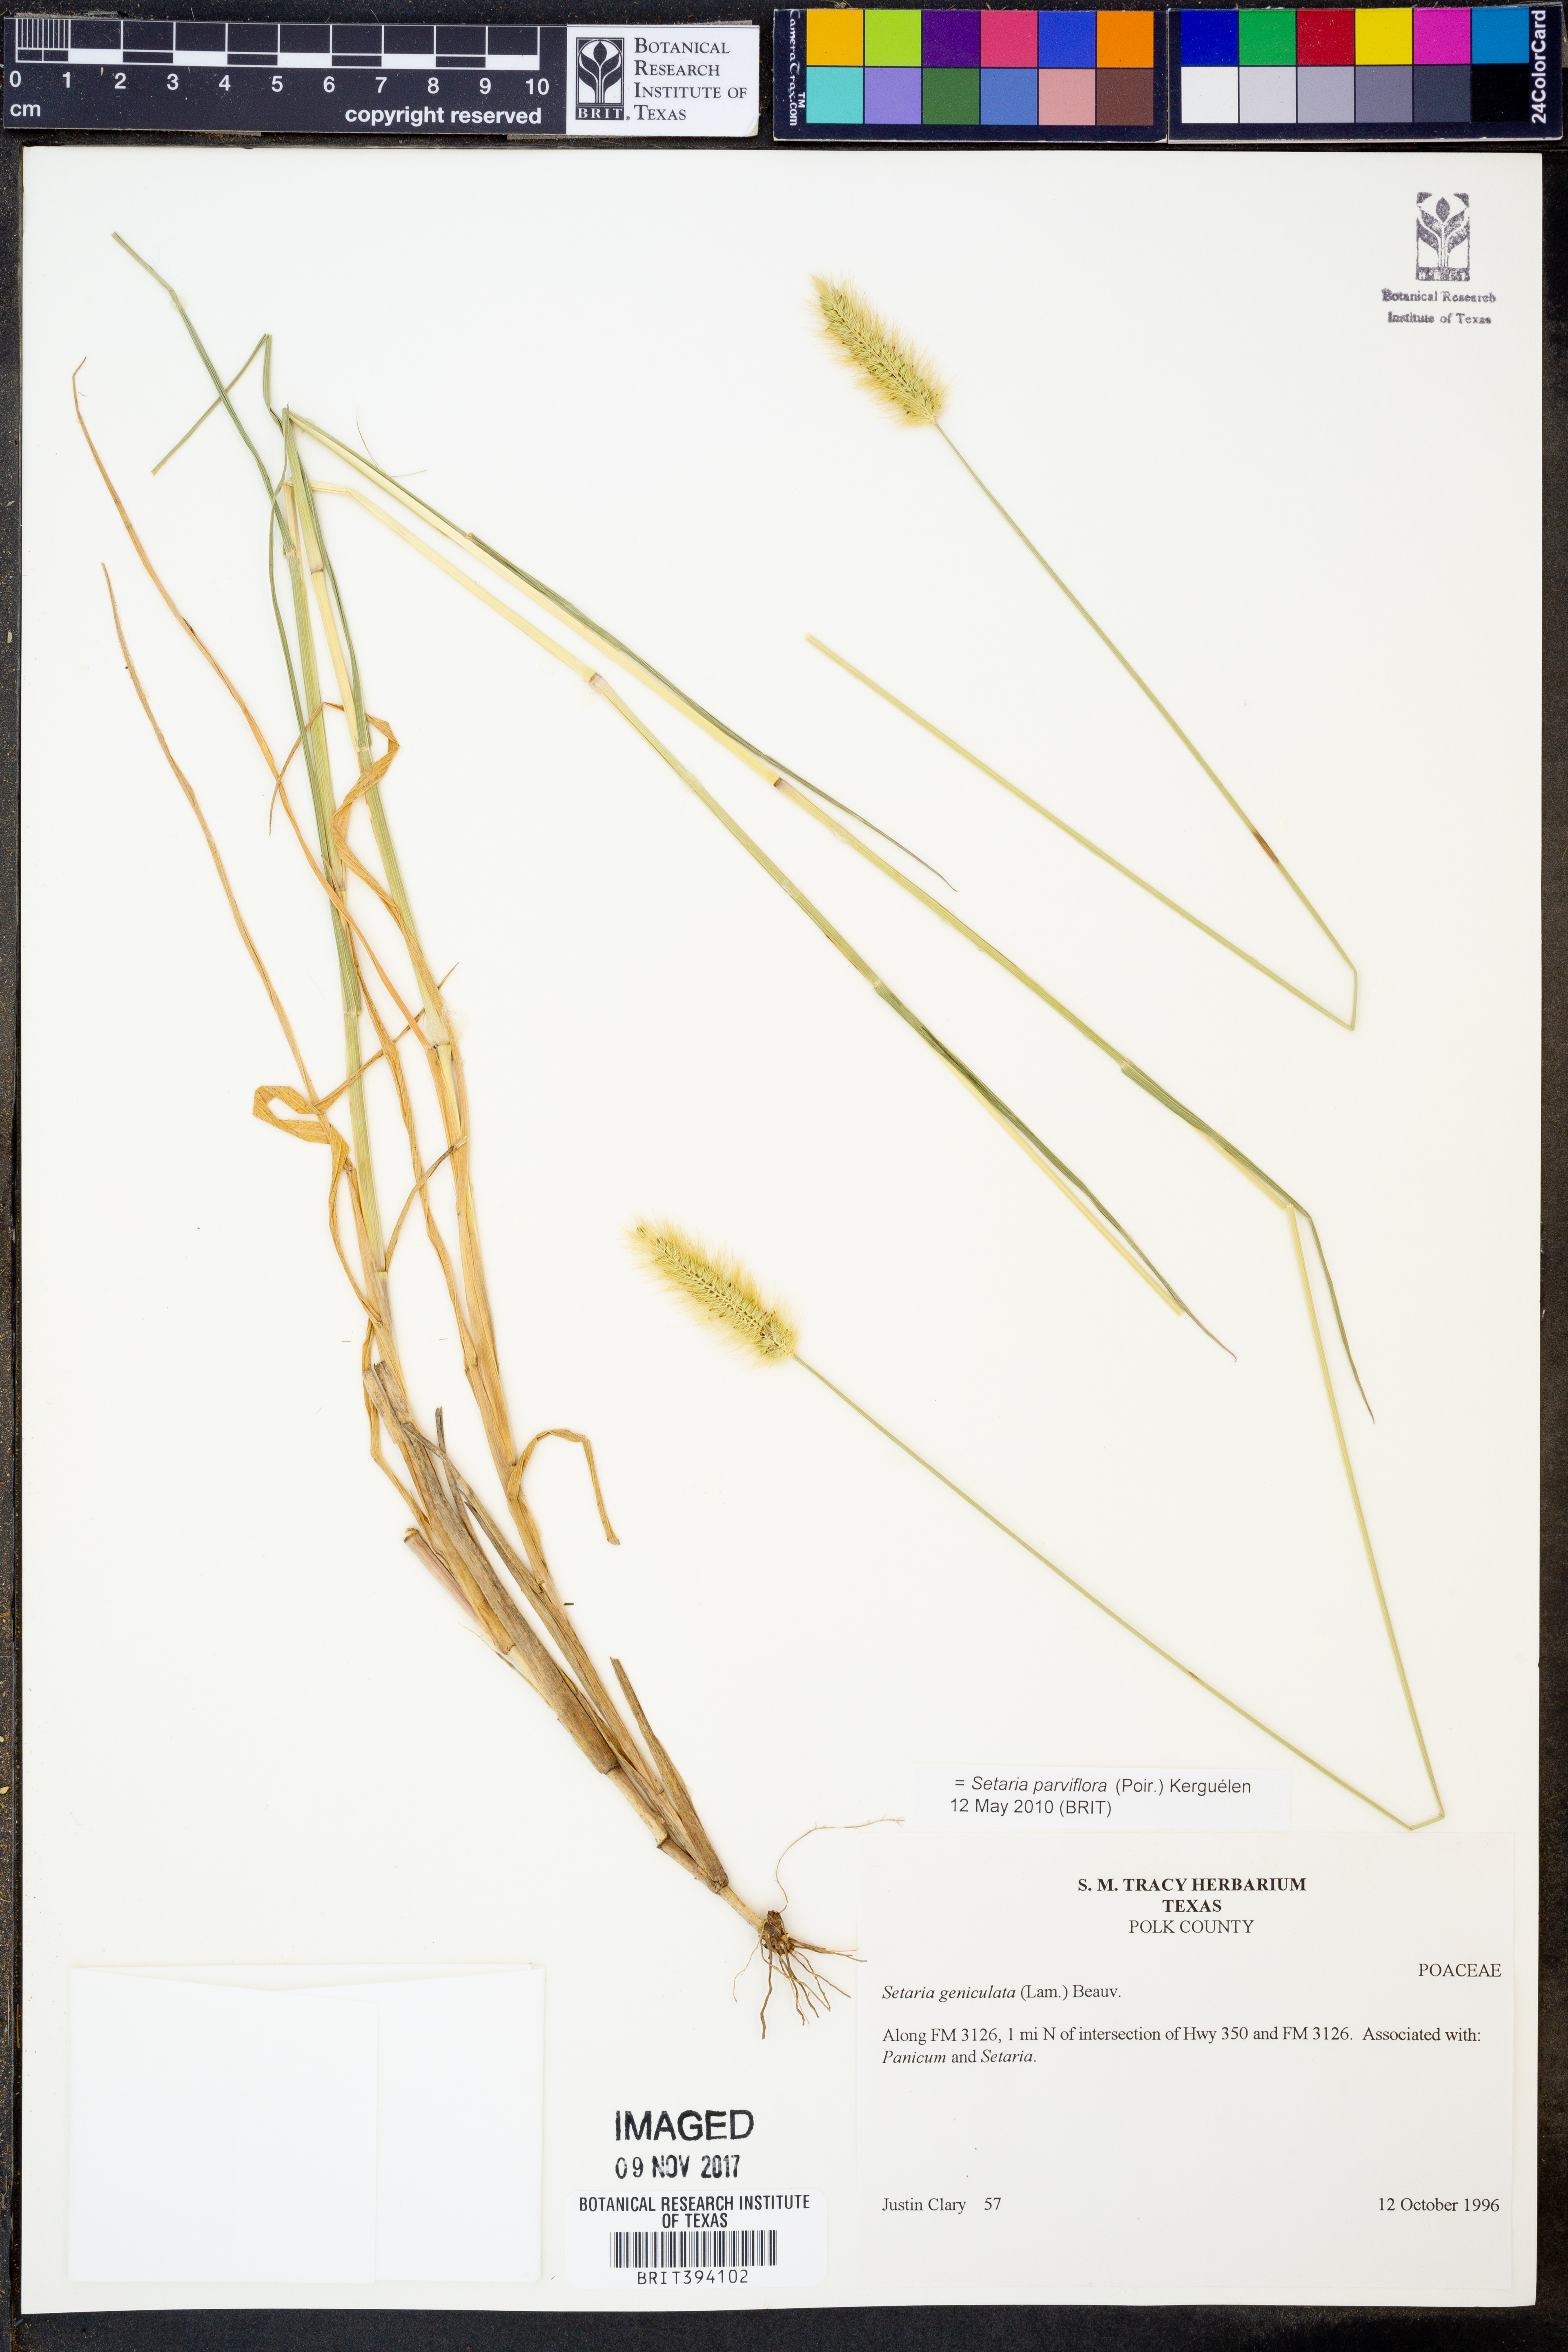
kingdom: Plantae
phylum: Tracheophyta
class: Liliopsida
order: Poales
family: Poaceae
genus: Setaria
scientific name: Setaria parviflora
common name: Knotroot bristle-grass
